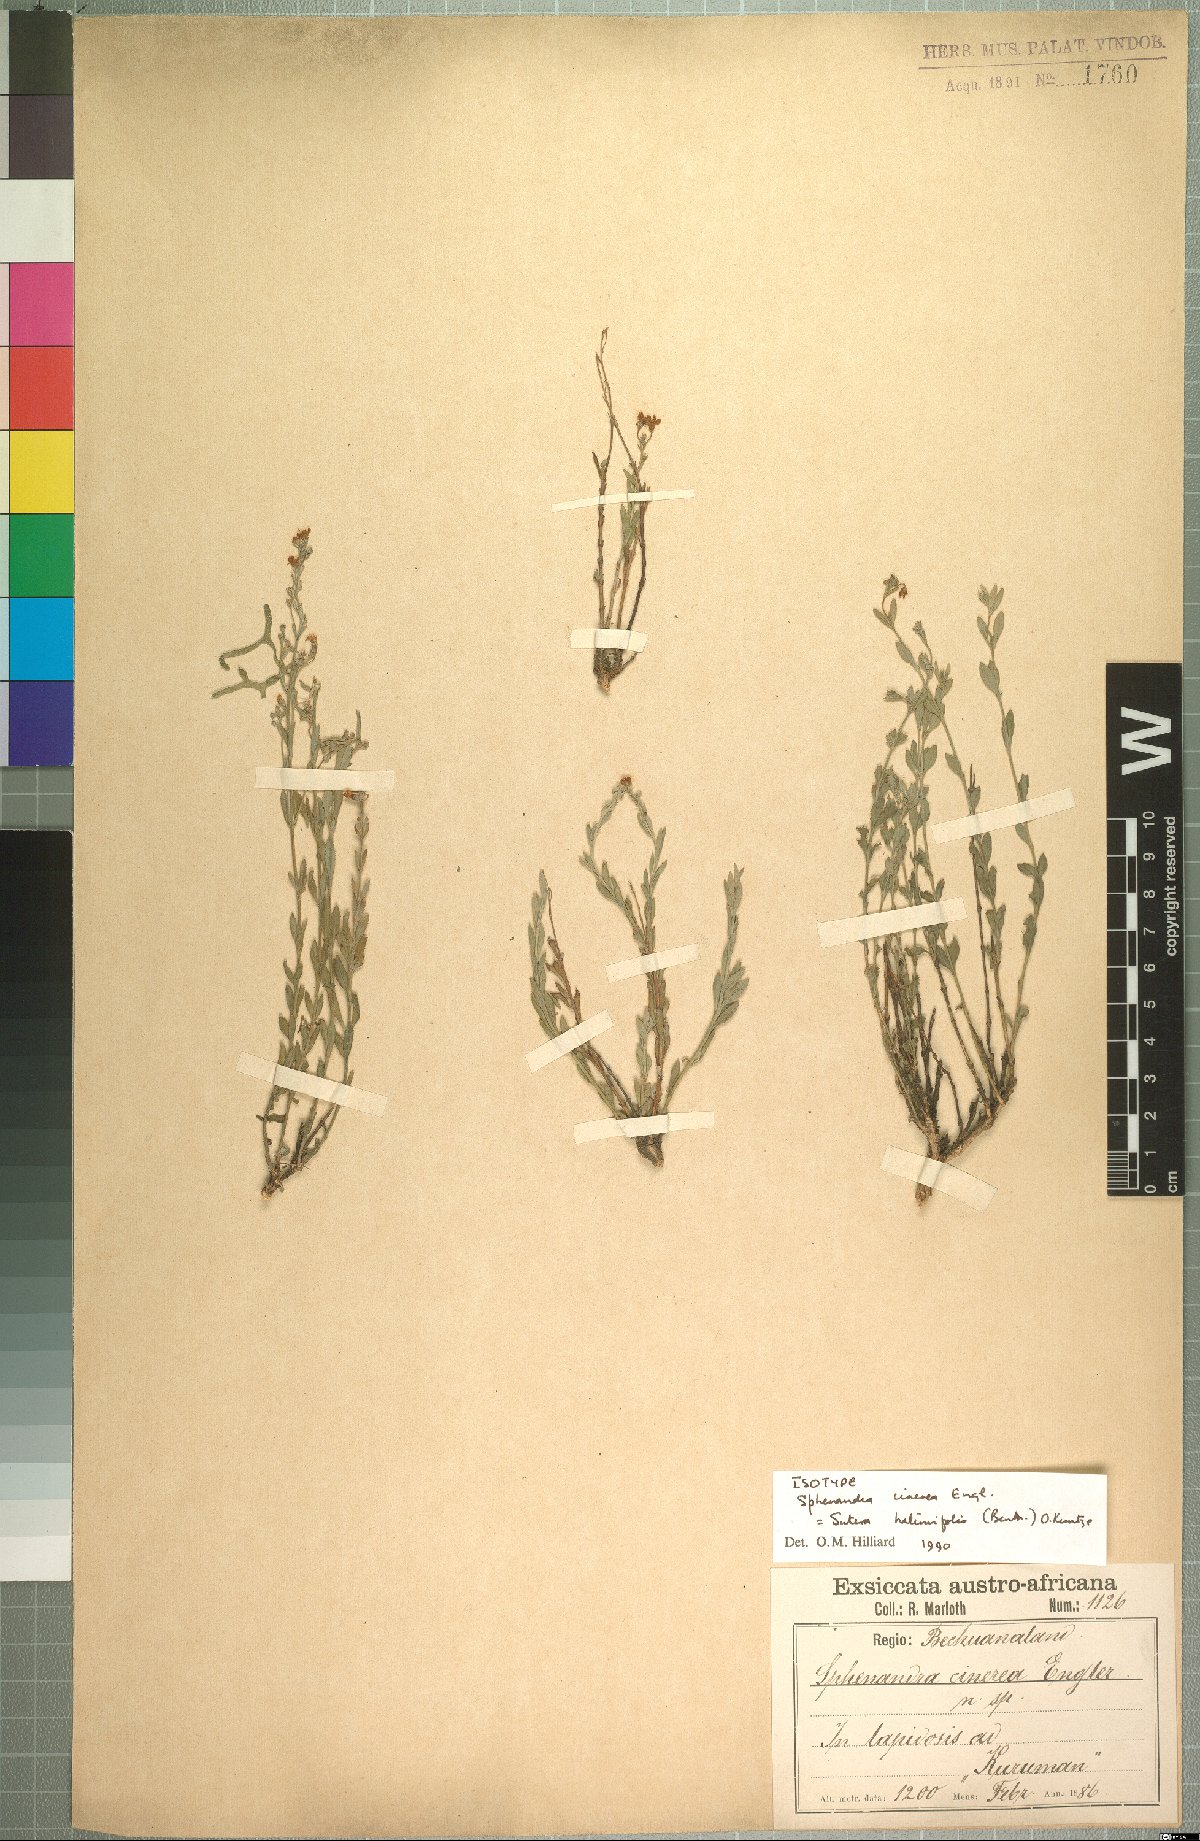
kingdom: Plantae
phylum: Tracheophyta
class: Magnoliopsida
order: Lamiales
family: Scrophulariaceae
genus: Chaenostoma
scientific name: Chaenostoma halimifolium
